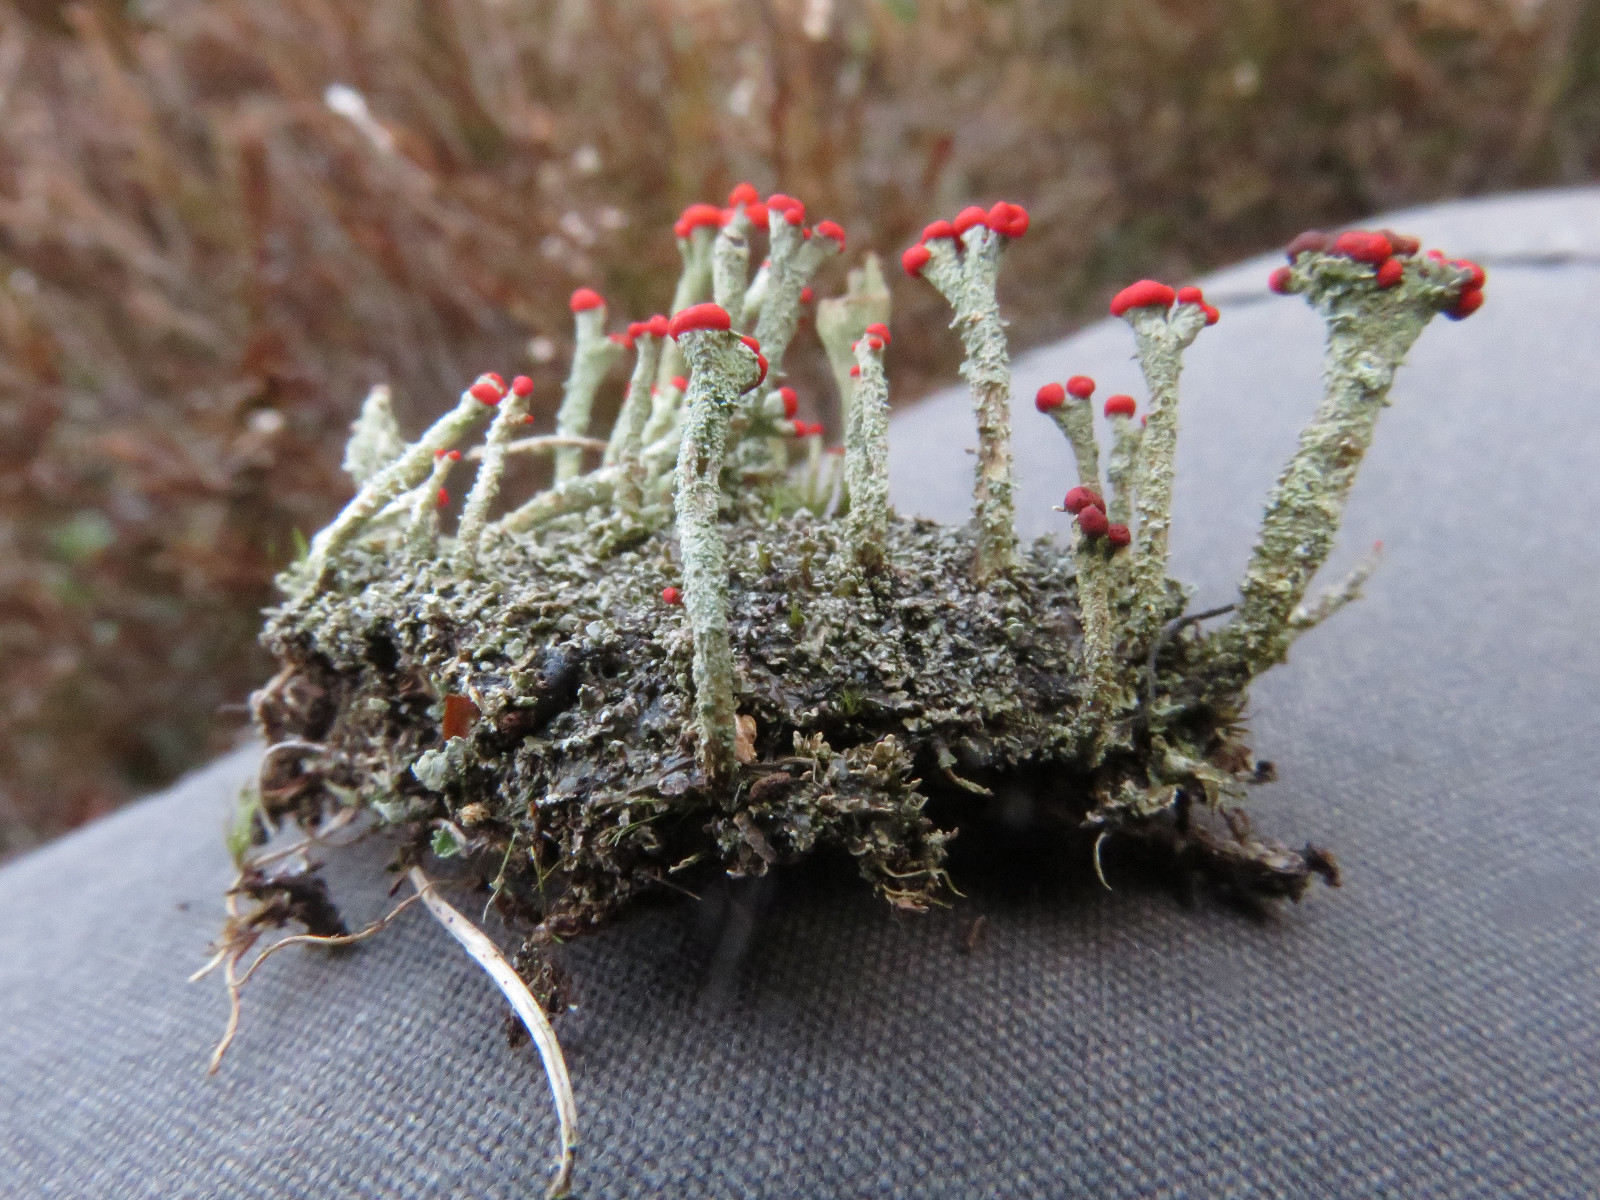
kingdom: Fungi
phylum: Ascomycota
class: Lecanoromycetes
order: Lecanorales
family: Cladoniaceae
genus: Cladonia
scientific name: Cladonia floerkeana
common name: lakrød bægerlav
